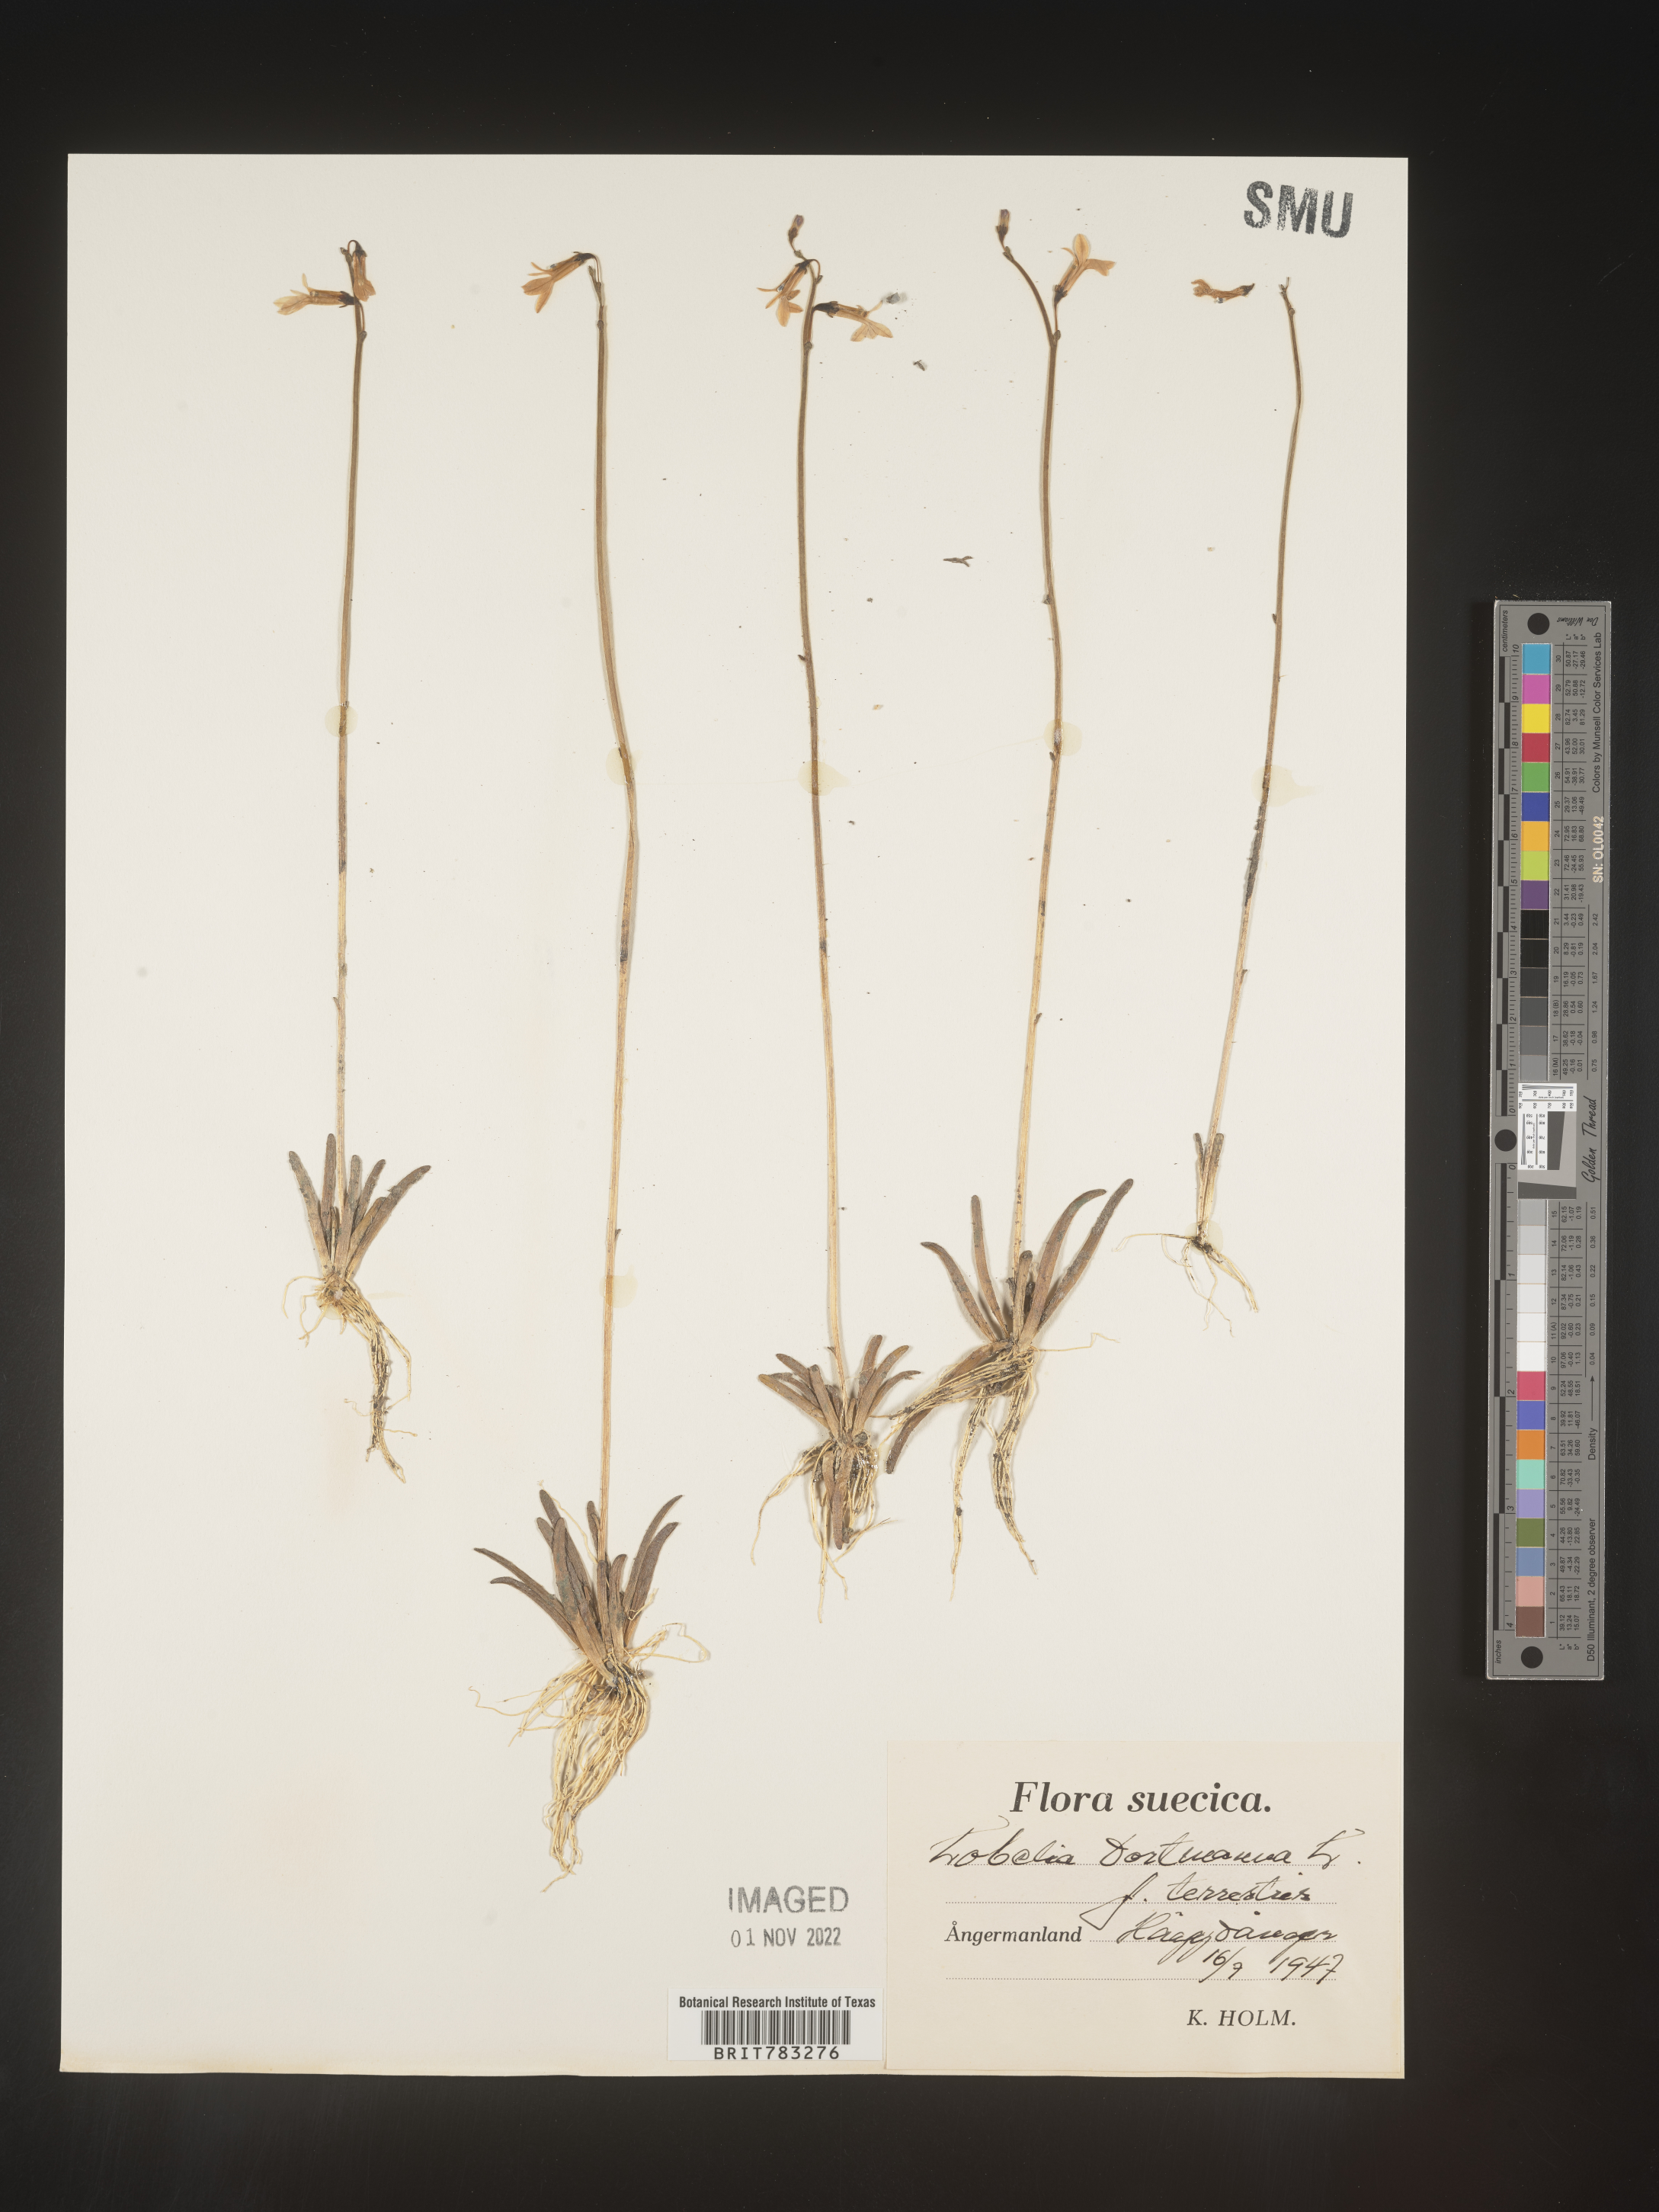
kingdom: Plantae
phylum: Tracheophyta
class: Magnoliopsida
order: Asterales
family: Campanulaceae
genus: Lobelia
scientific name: Lobelia
